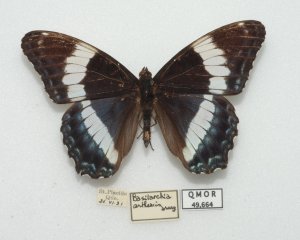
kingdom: Animalia
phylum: Arthropoda
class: Insecta
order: Lepidoptera
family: Nymphalidae
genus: Limenitis
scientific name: Limenitis arthemis
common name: Red-spotted Admiral
